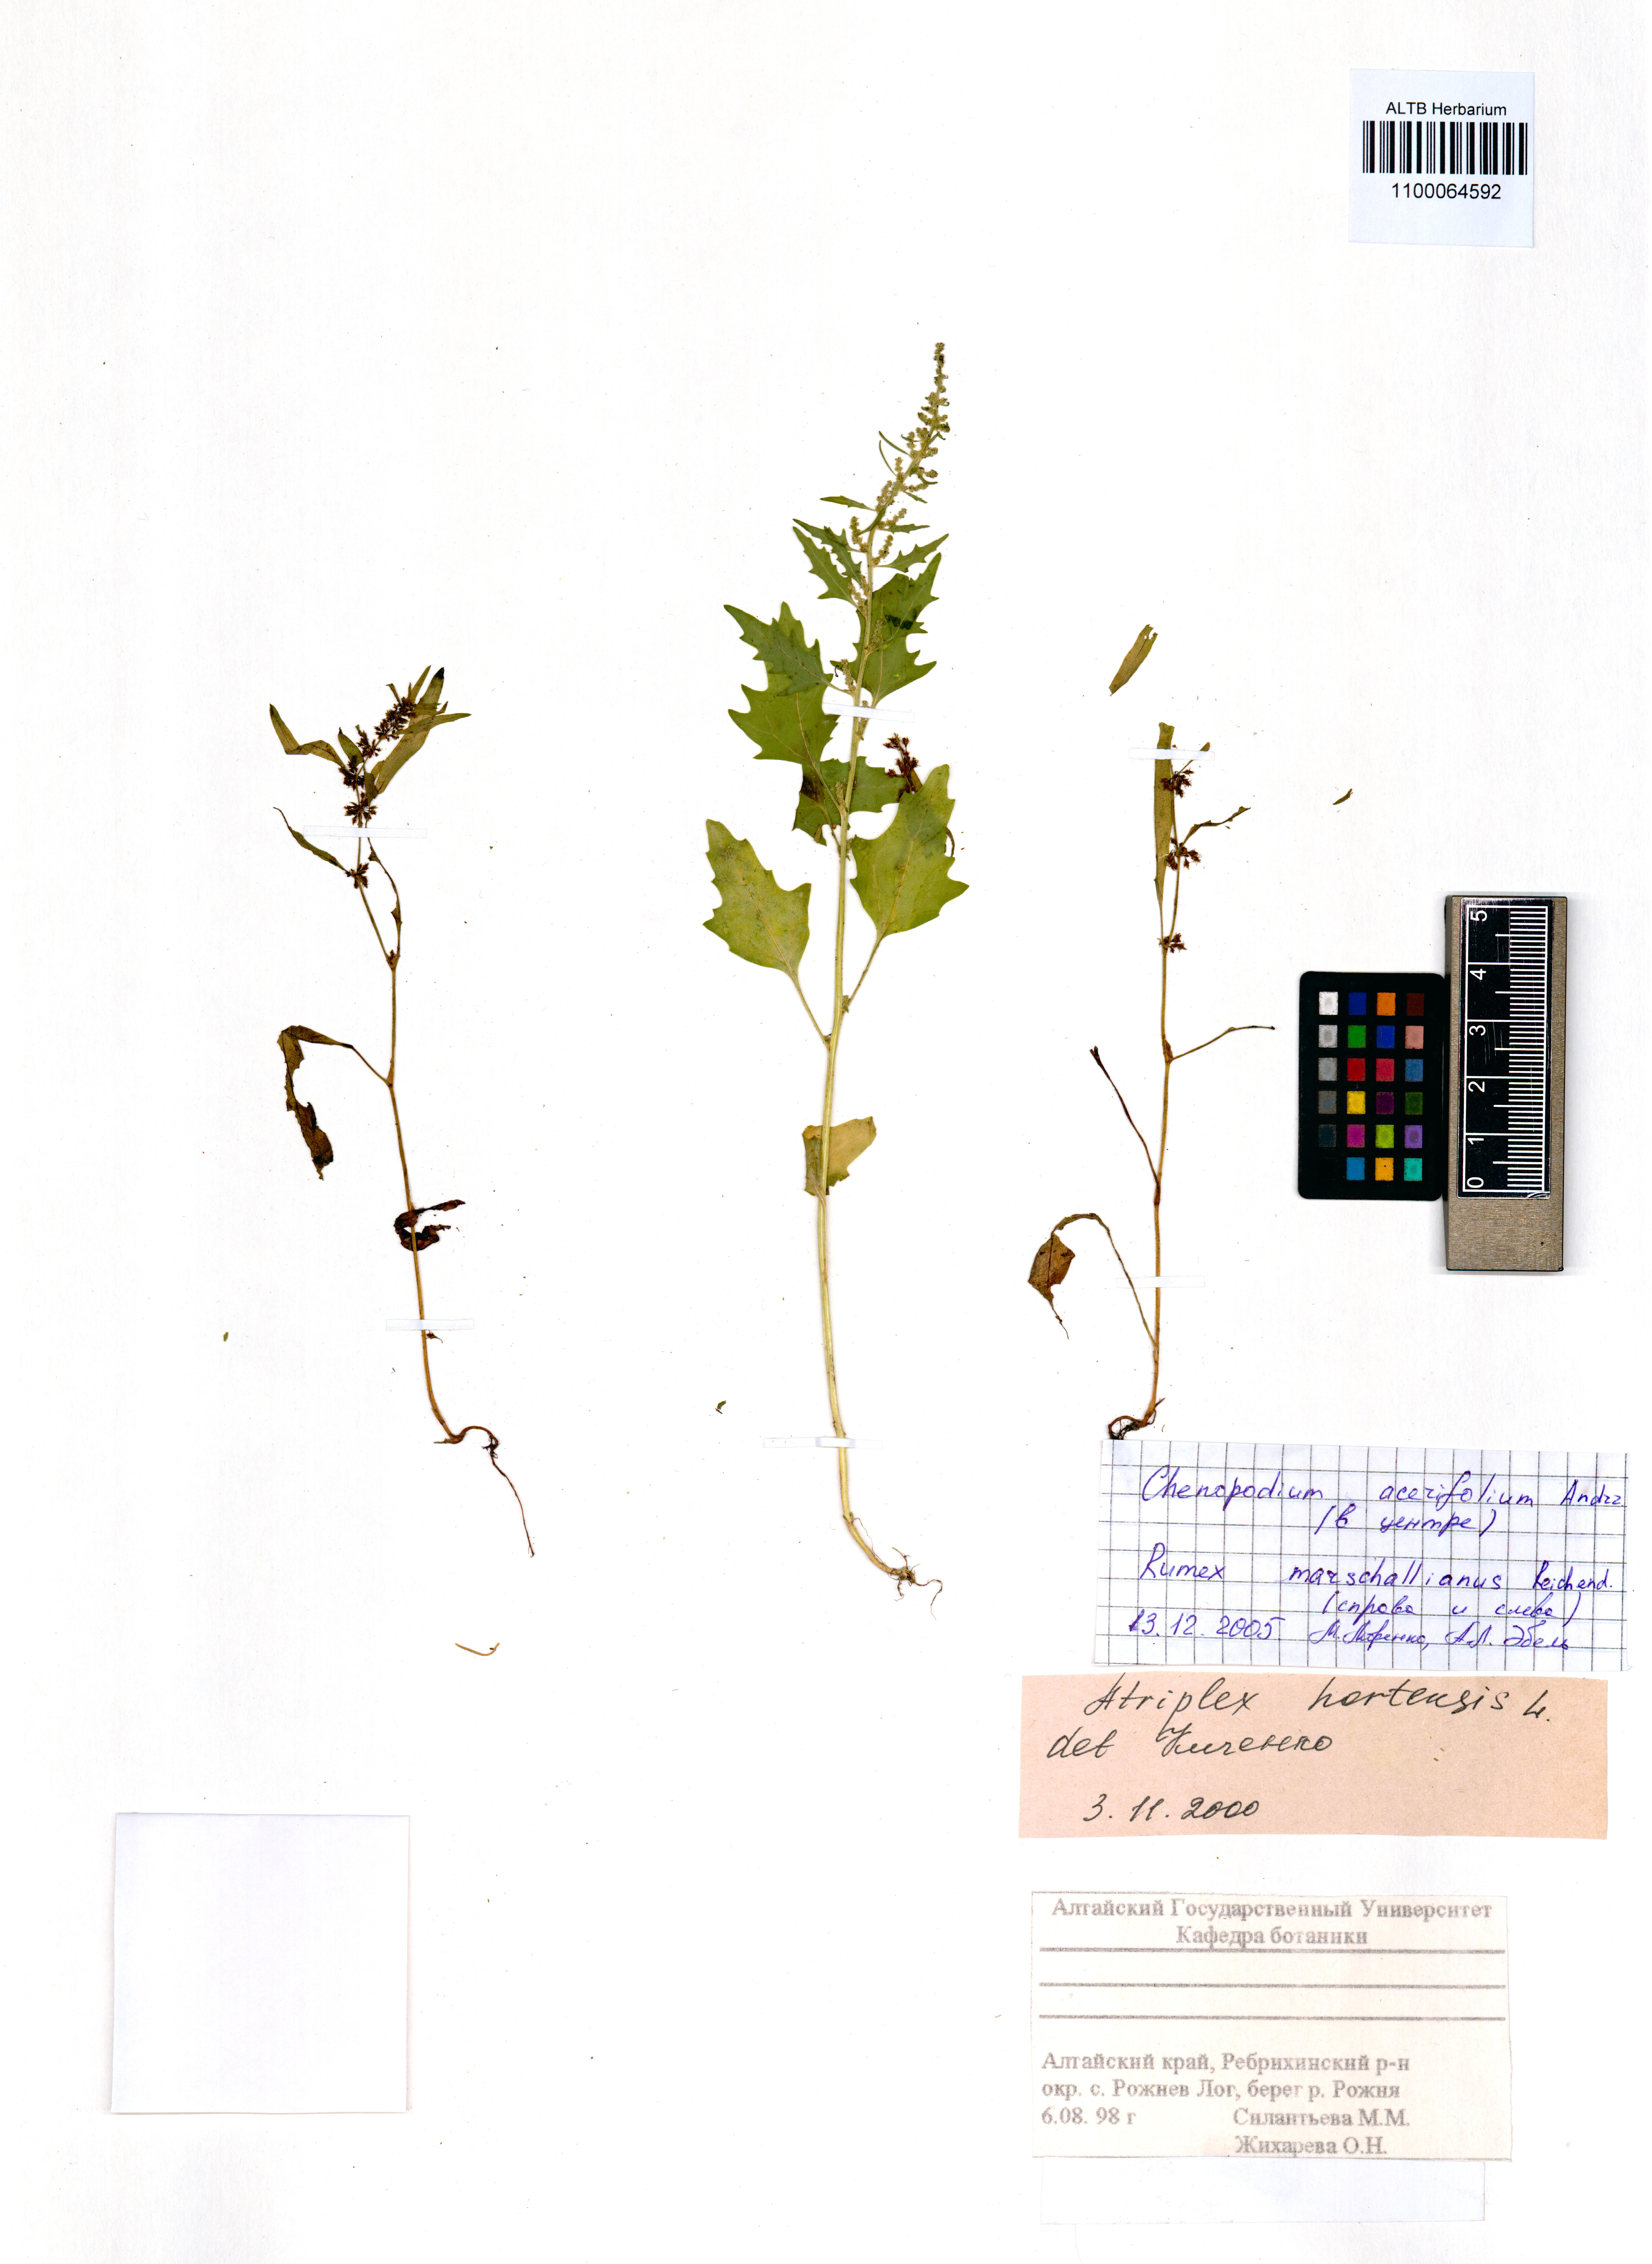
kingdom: Plantae
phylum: Tracheophyta
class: Magnoliopsida
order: Caryophyllales
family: Amaranthaceae
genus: Chenopodium
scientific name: Chenopodium acerifolium
